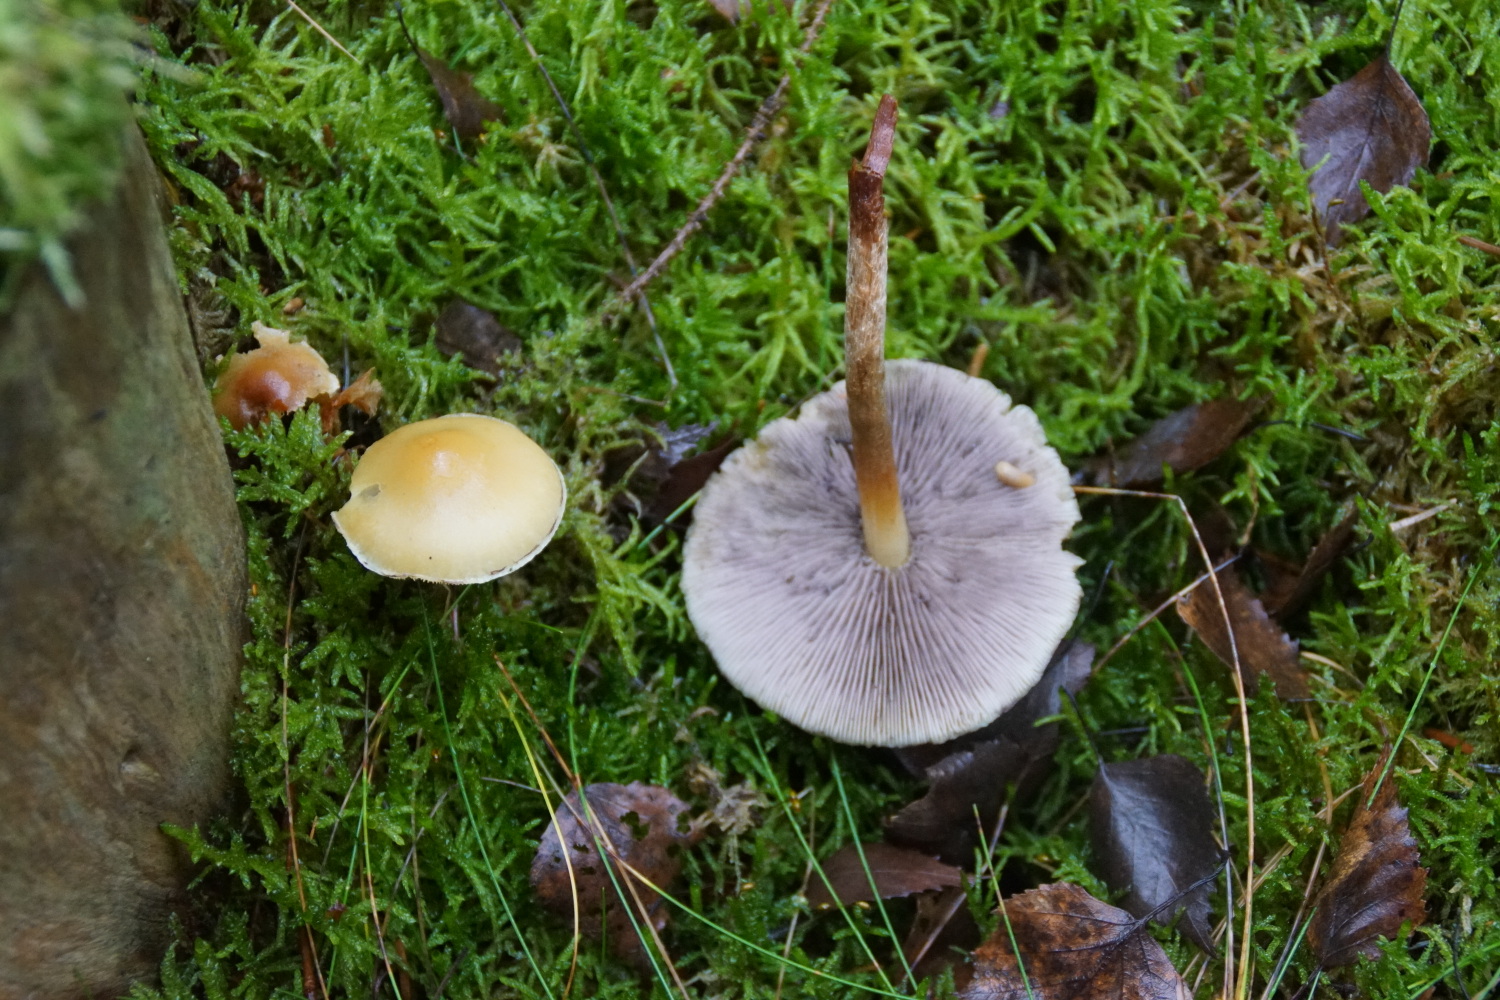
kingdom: Fungi
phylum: Basidiomycota
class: Agaricomycetes
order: Agaricales
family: Strophariaceae
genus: Hypholoma
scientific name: Hypholoma capnoides
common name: gran-svovlhat
